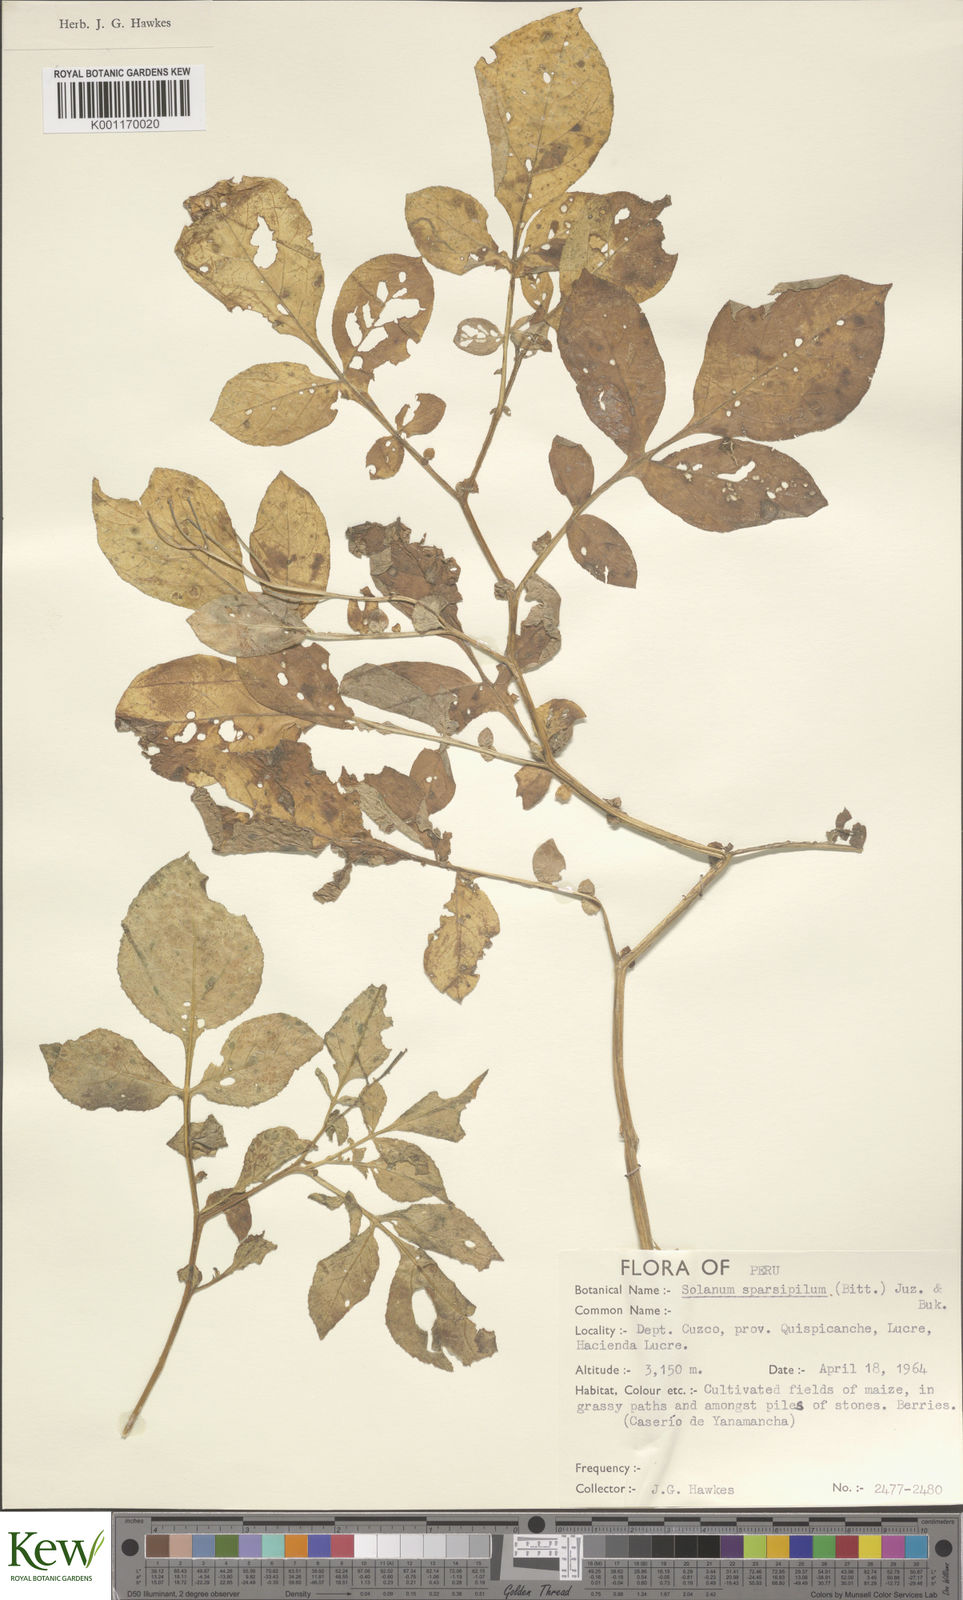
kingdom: Plantae
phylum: Tracheophyta
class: Magnoliopsida
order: Solanales
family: Solanaceae
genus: Solanum
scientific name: Solanum brevicaule
